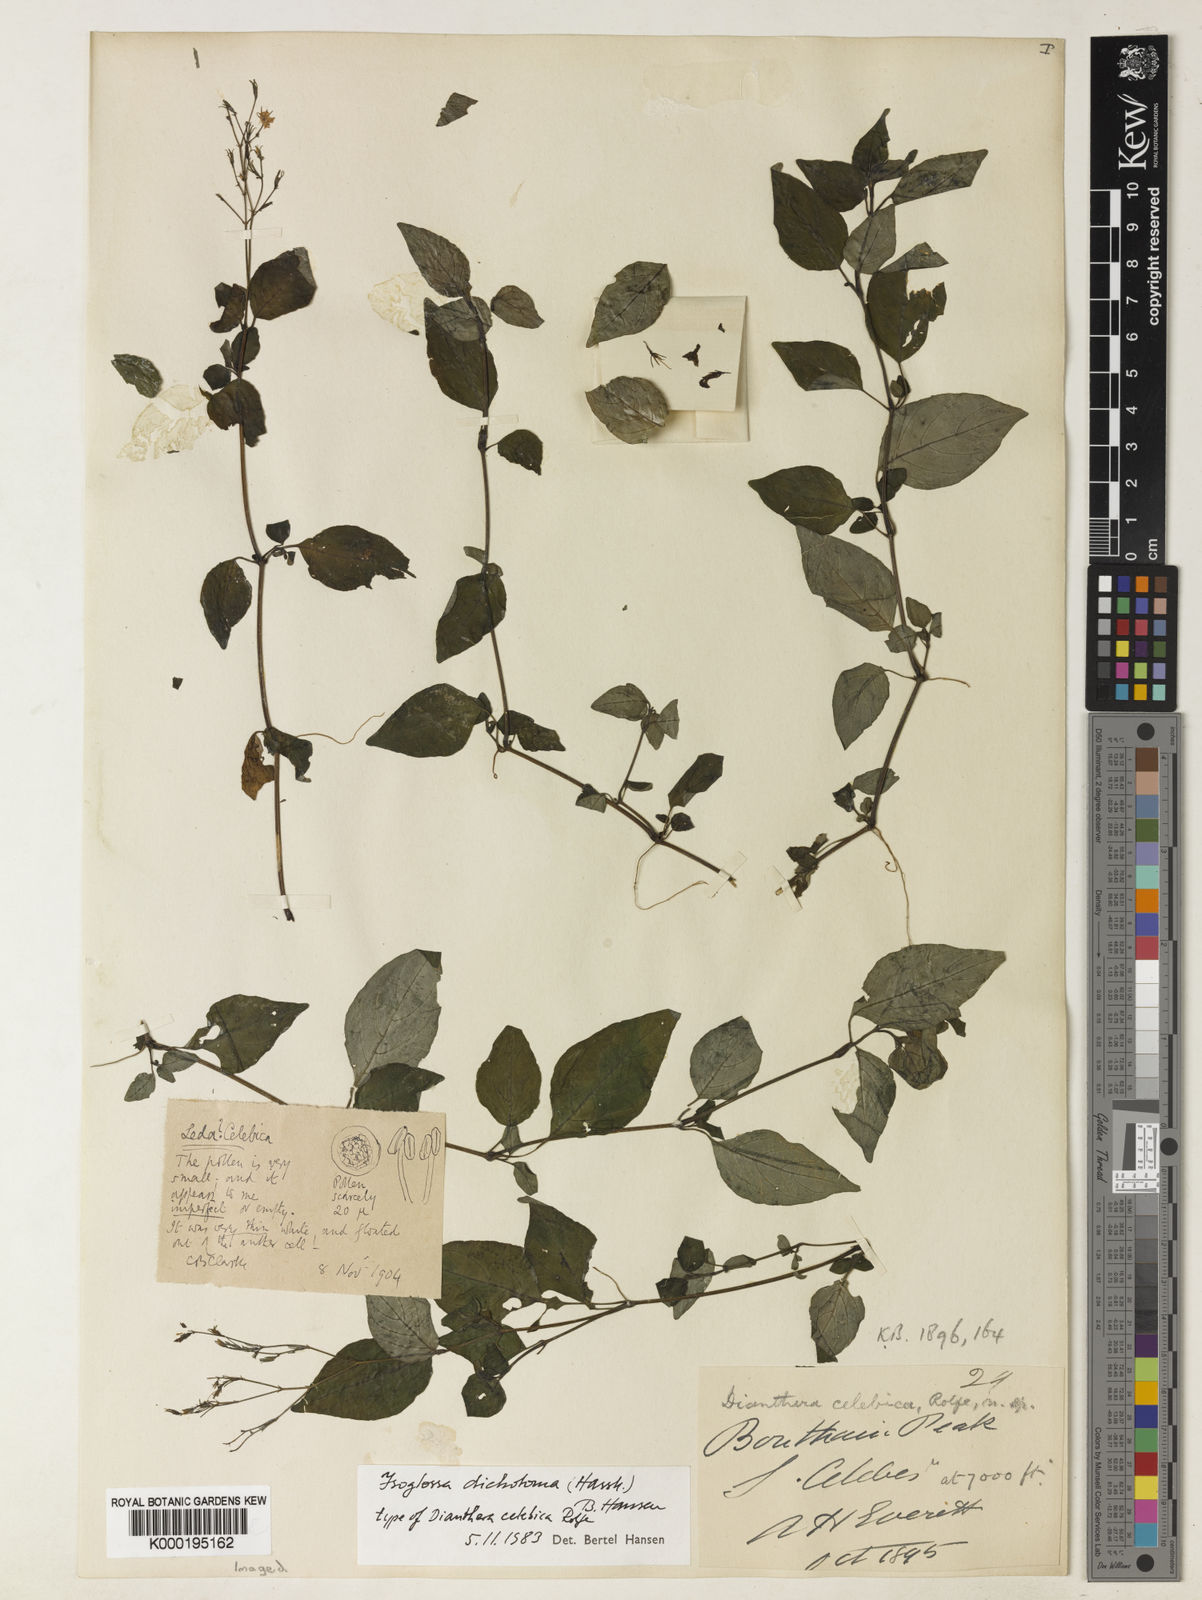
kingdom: Plantae
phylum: Tracheophyta
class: Magnoliopsida
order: Lamiales
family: Acanthaceae
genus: Isoglossa
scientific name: Isoglossa dichotoma
